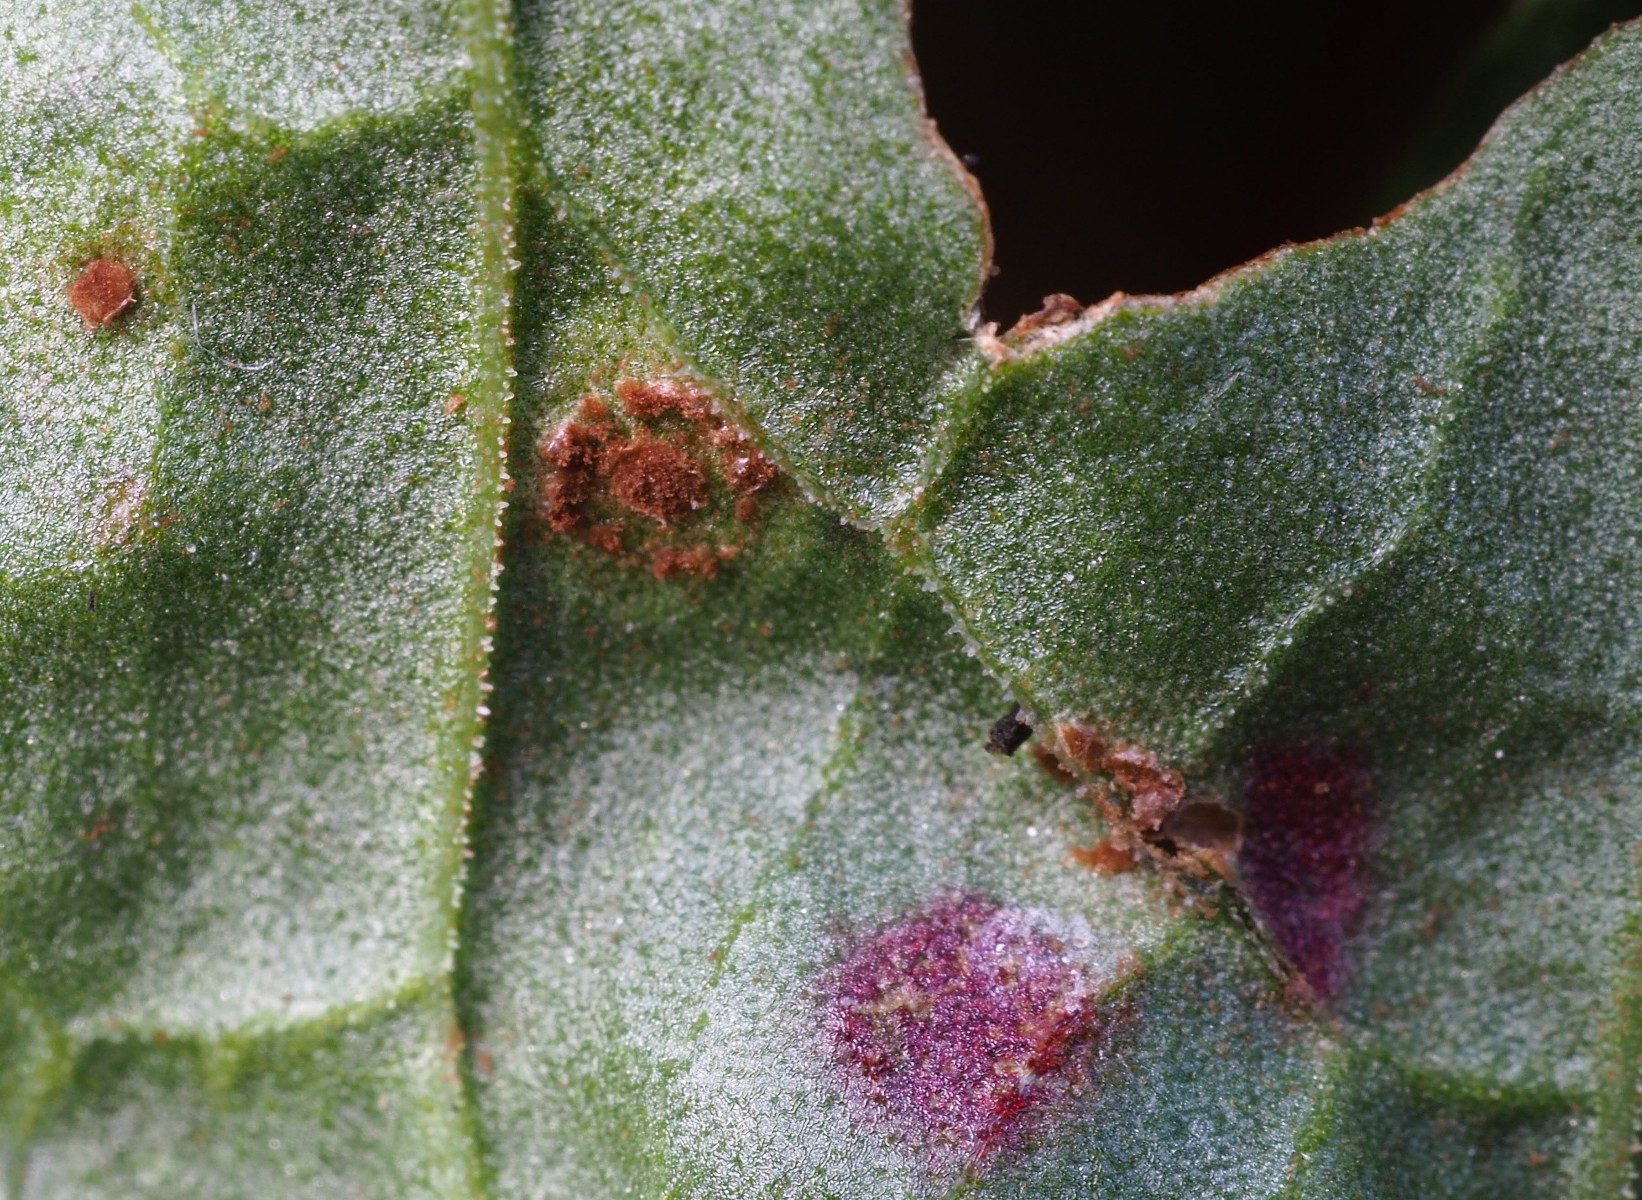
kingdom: Fungi
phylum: Basidiomycota
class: Pucciniomycetes
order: Pucciniales
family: Pucciniaceae
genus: Puccinia
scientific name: Puccinia acetosae
